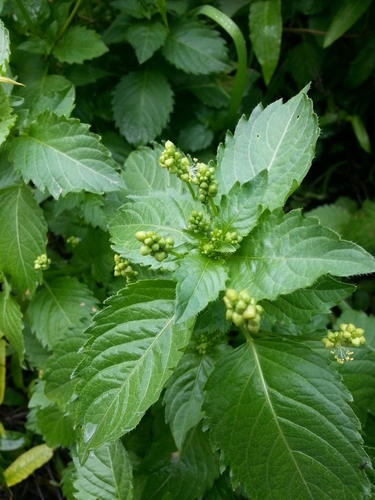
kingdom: Plantae
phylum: Tracheophyta
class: Magnoliopsida
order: Malpighiales
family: Euphorbiaceae
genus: Mercurialis
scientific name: Mercurialis annua
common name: Annual mercury
